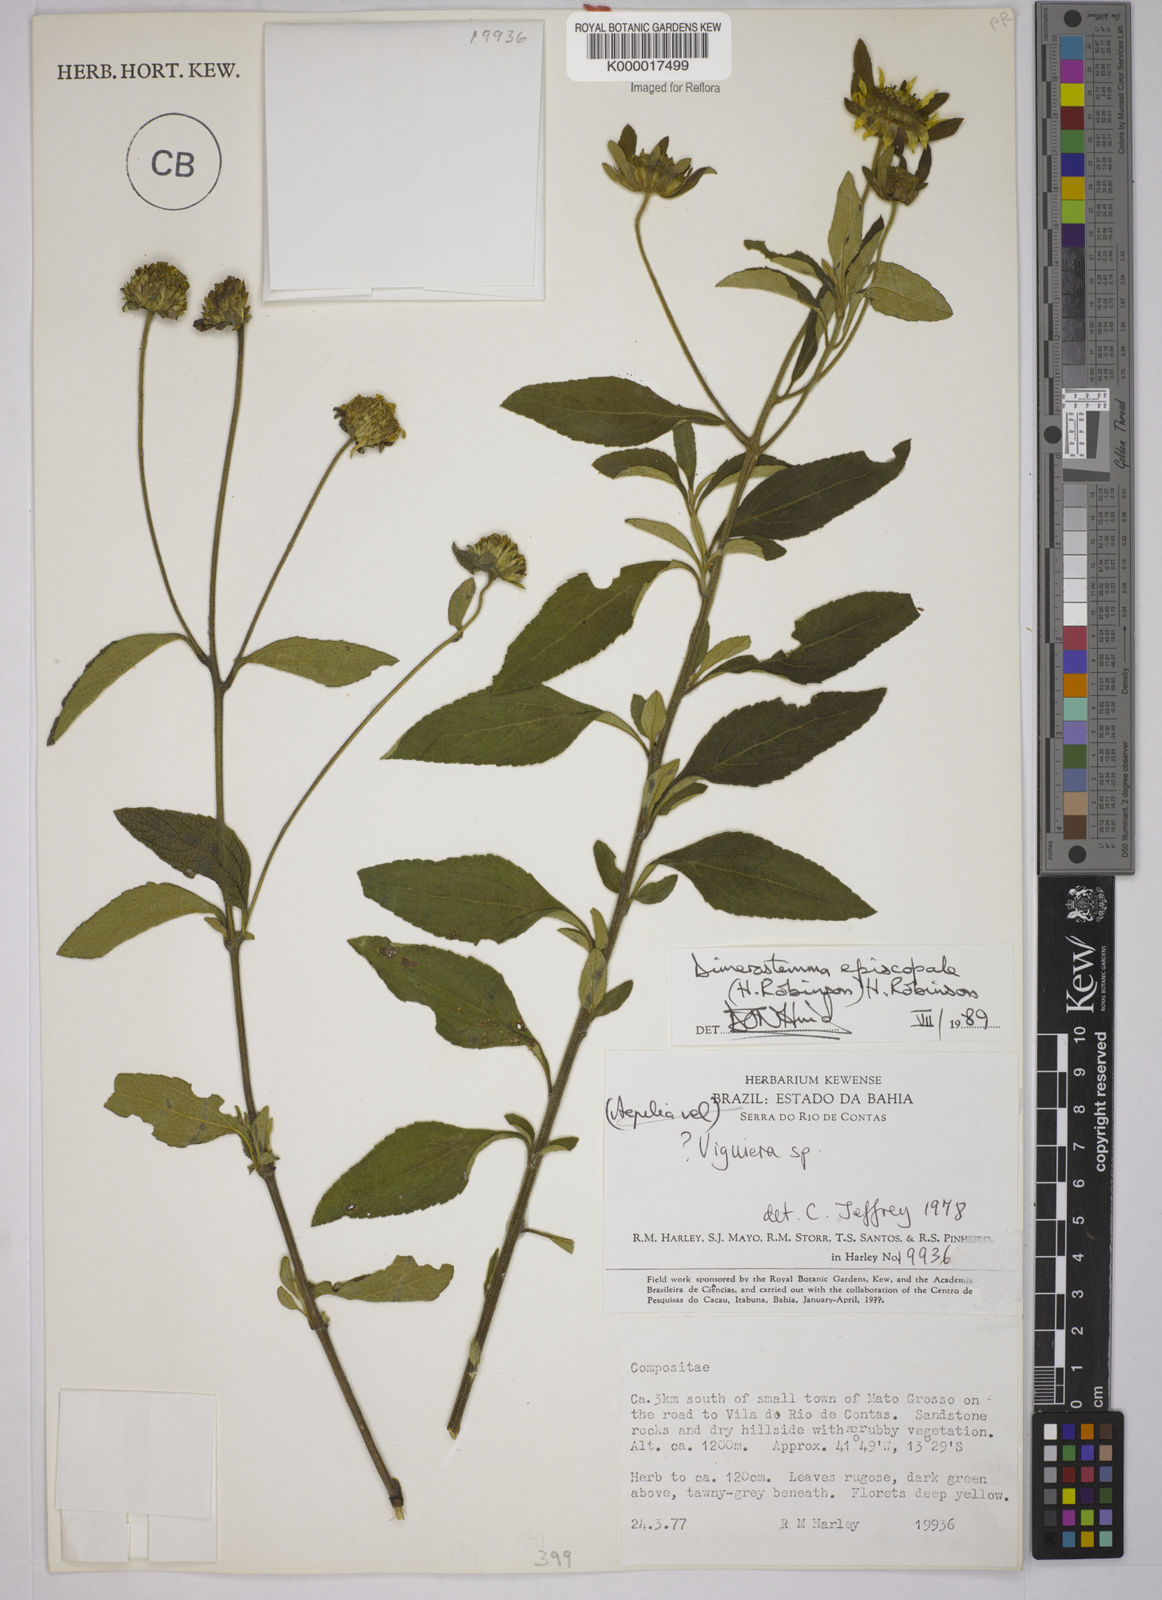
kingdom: Plantae
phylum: Tracheophyta
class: Magnoliopsida
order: Asterales
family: Asteraceae
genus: Dimerostemma
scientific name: Dimerostemma episcopale
